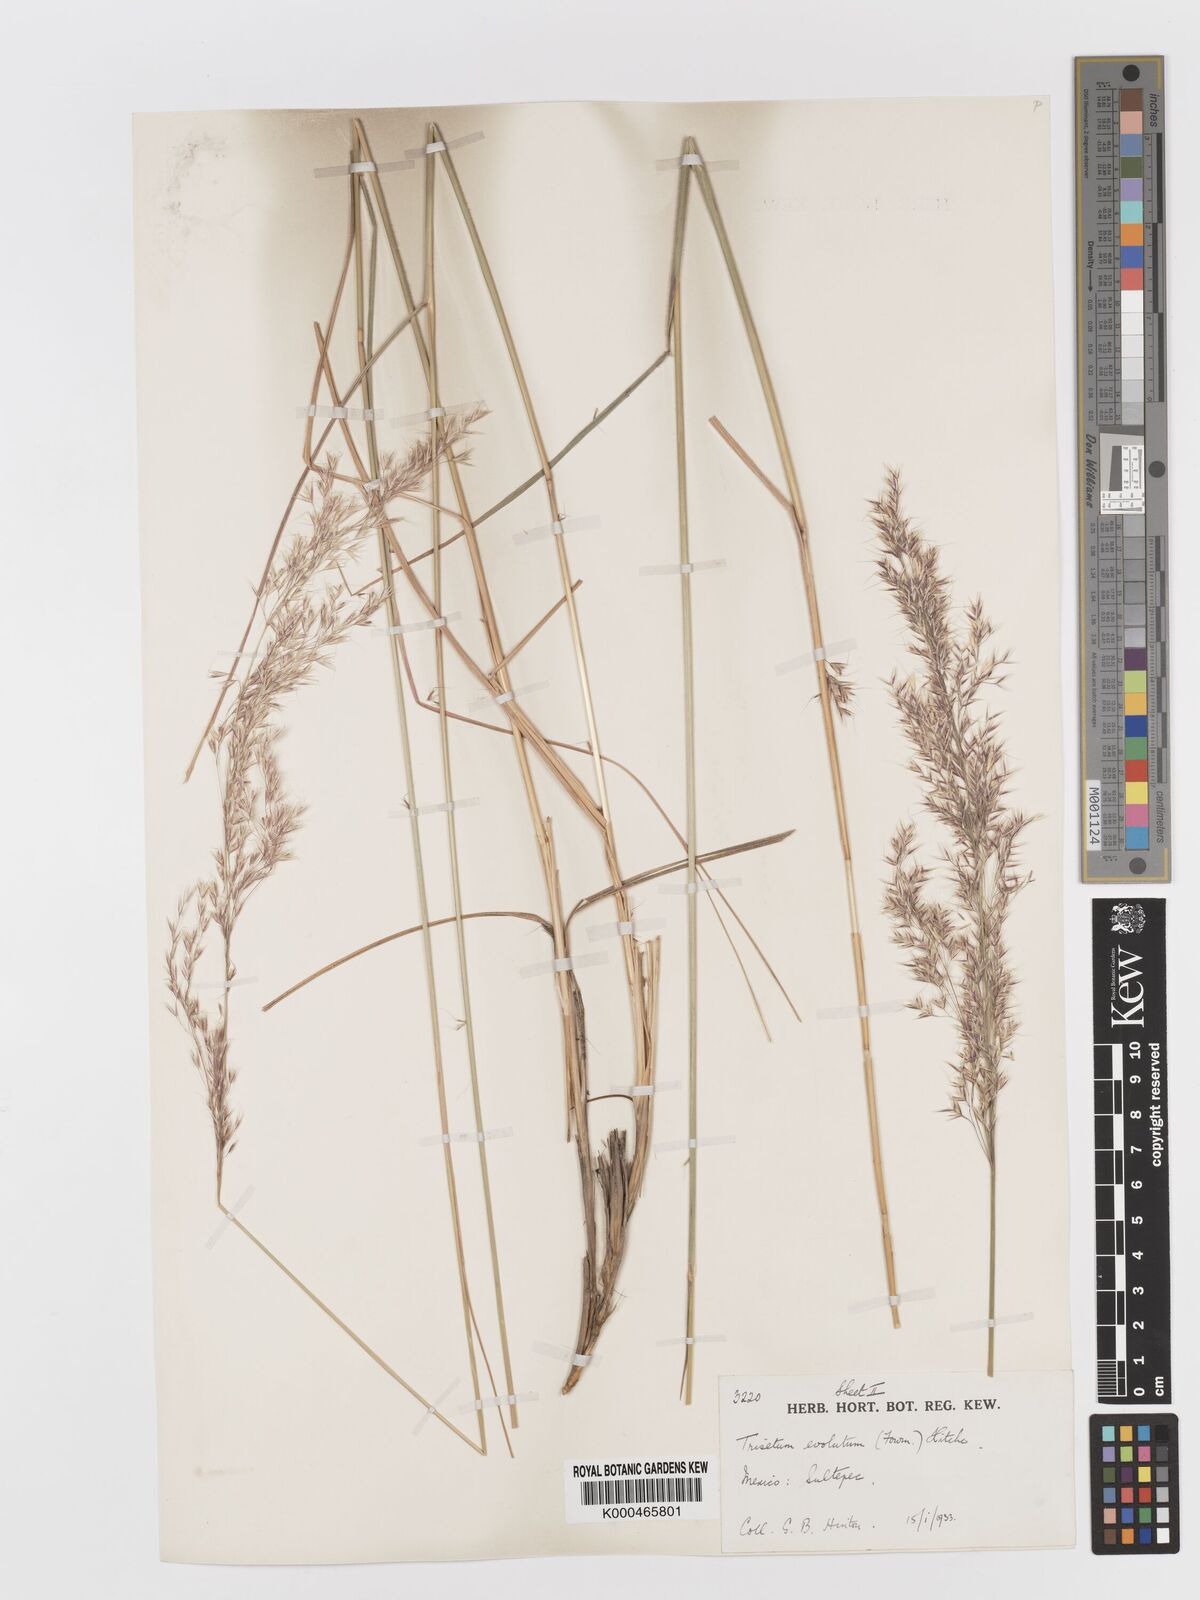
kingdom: Plantae
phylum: Tracheophyta
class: Liliopsida
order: Poales
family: Poaceae
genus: Peyritschia
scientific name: Peyritschia deyeuxioides
